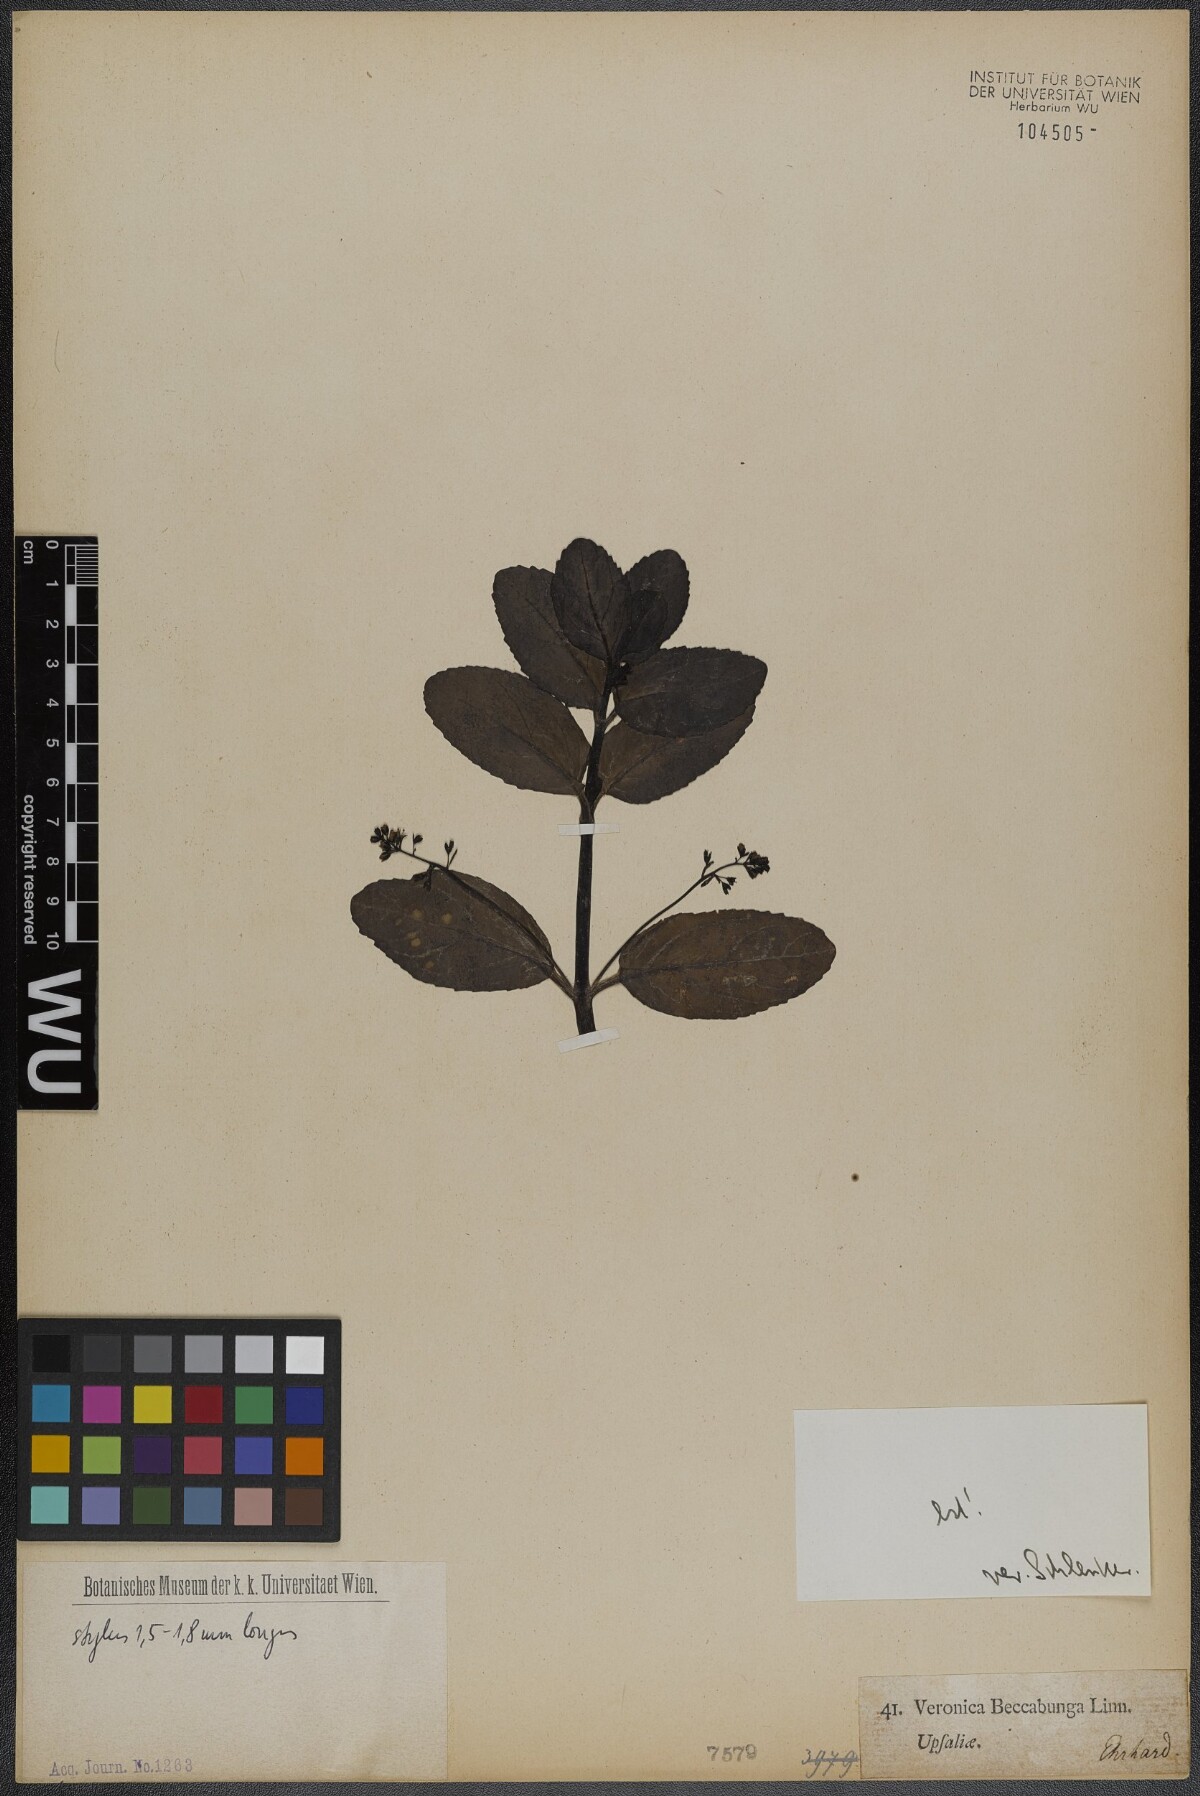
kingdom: Plantae
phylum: Tracheophyta
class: Magnoliopsida
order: Lamiales
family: Plantaginaceae
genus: Veronica
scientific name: Veronica beccabunga
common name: Brooklime
